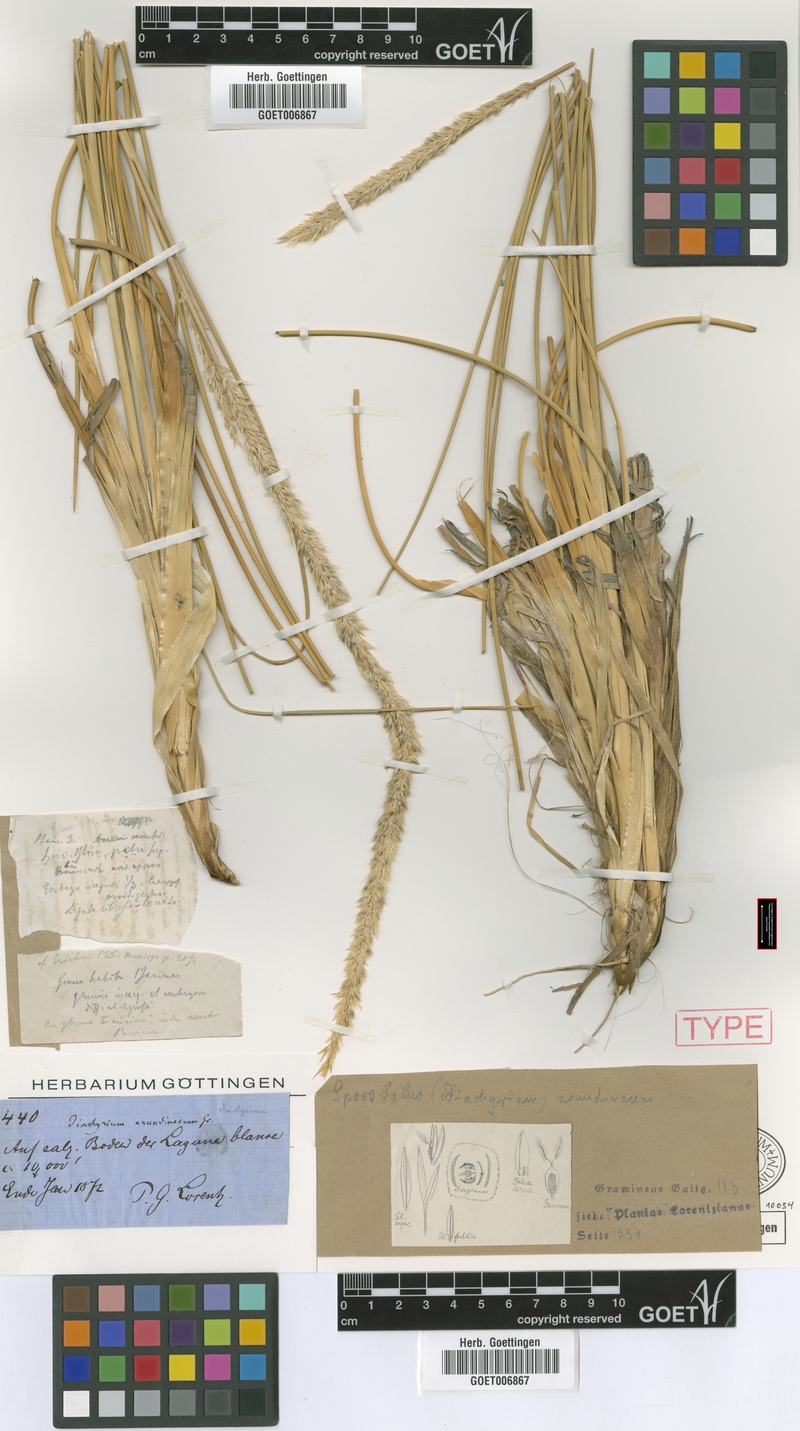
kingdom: Plantae
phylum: Tracheophyta
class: Liliopsida
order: Poales
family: Poaceae
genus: Sporobolus
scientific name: Sporobolus rigens
